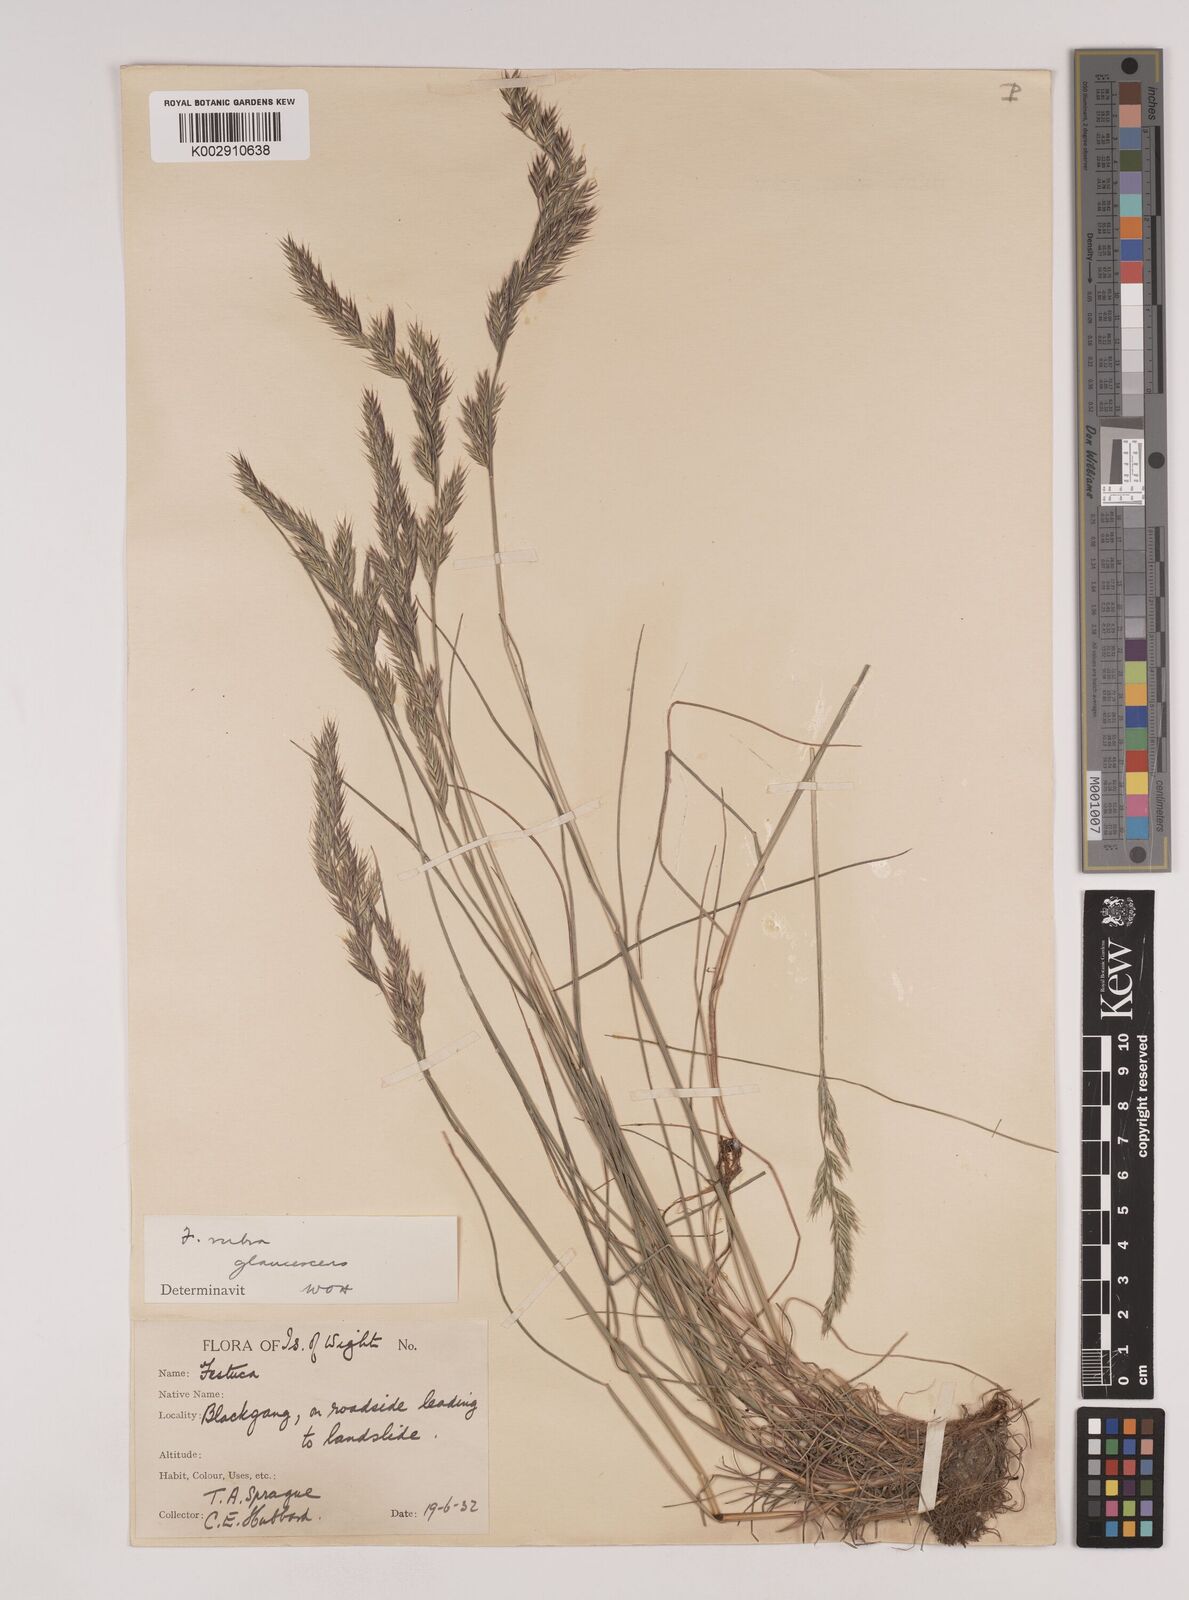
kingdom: Plantae
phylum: Tracheophyta
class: Liliopsida
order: Poales
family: Poaceae
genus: Festuca
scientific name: Festuca rubra
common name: Red fescue
